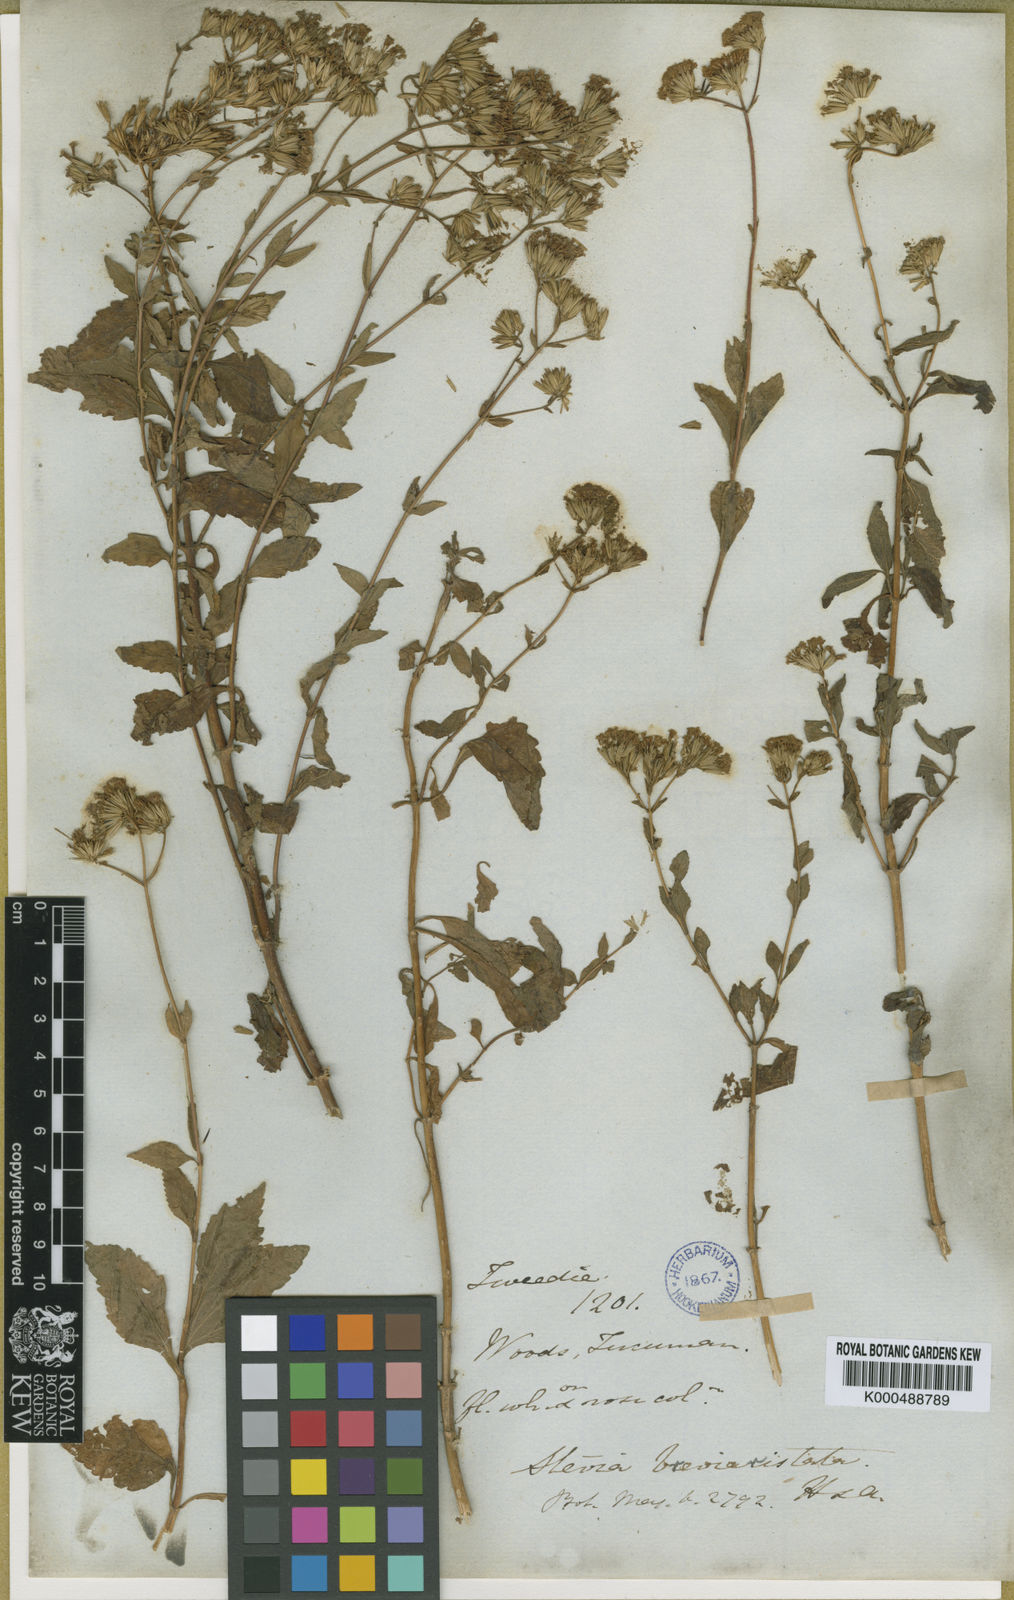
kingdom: Plantae
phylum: Tracheophyta
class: Magnoliopsida
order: Asterales
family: Asteraceae
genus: Stevia
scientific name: Stevia breviaristata
